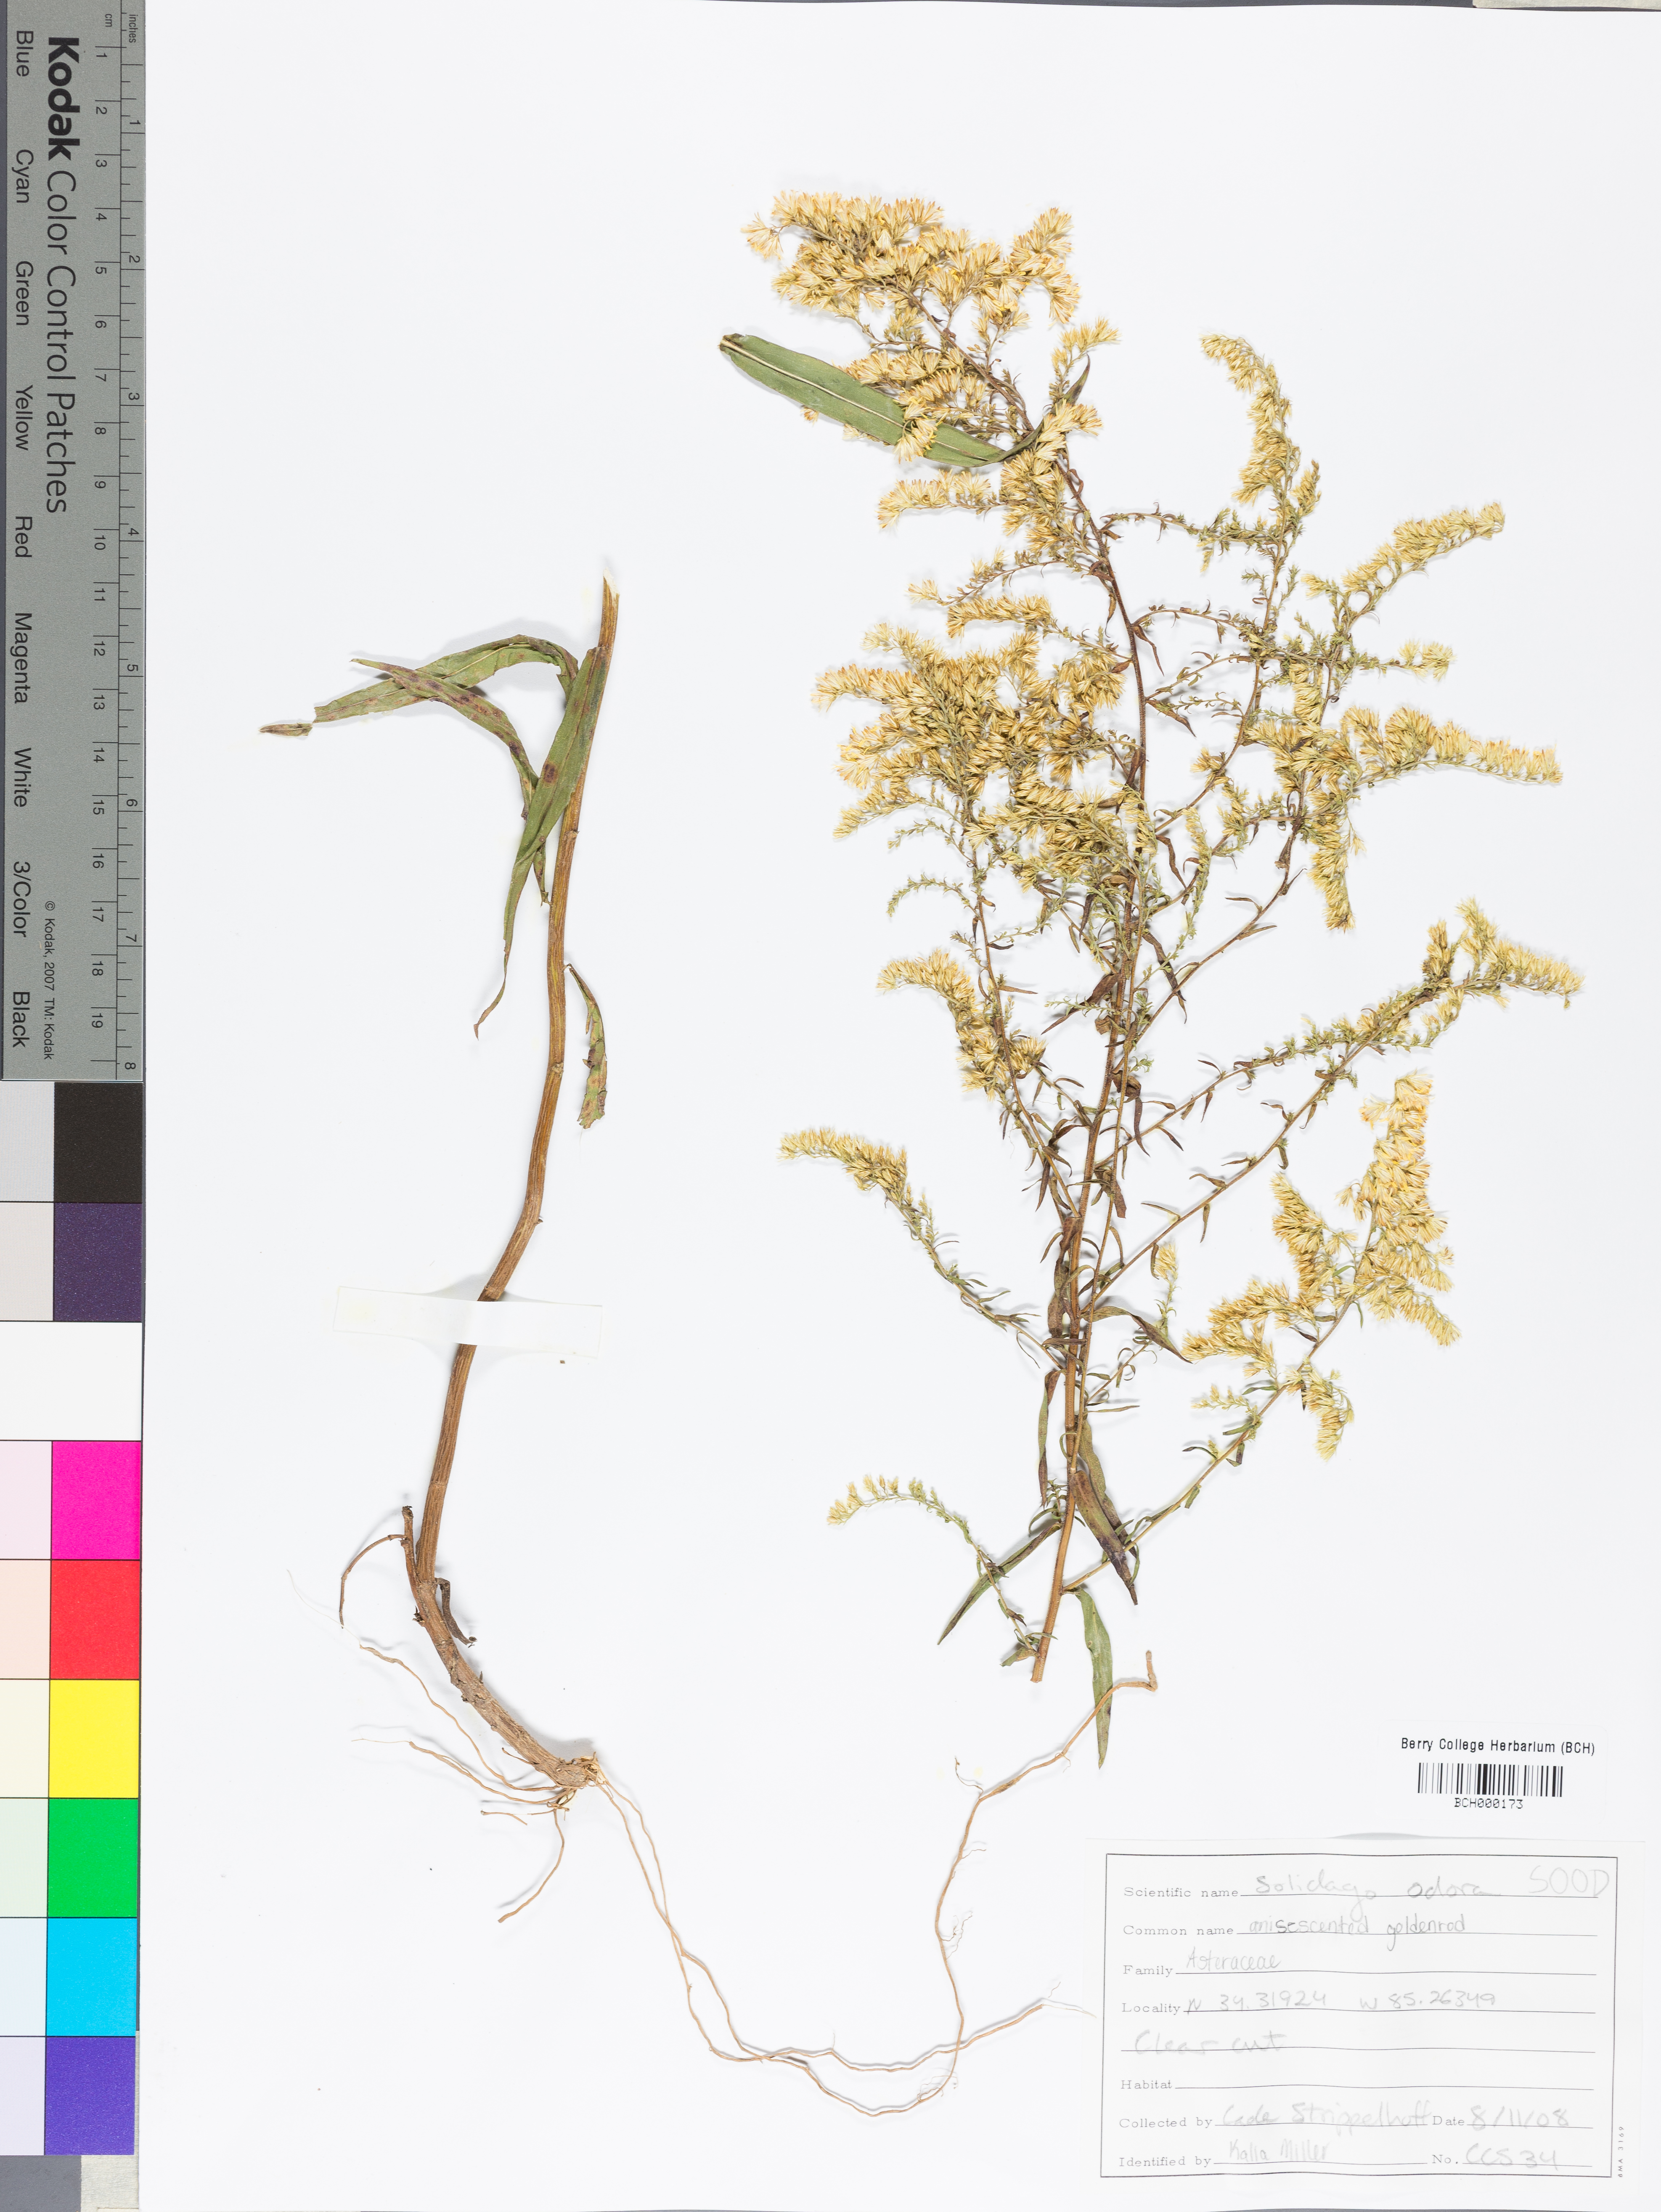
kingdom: Plantae
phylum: Tracheophyta
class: Magnoliopsida
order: Asterales
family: Asteraceae
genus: Solidago
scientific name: Solidago odora
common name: Anise-scented goldenrod
